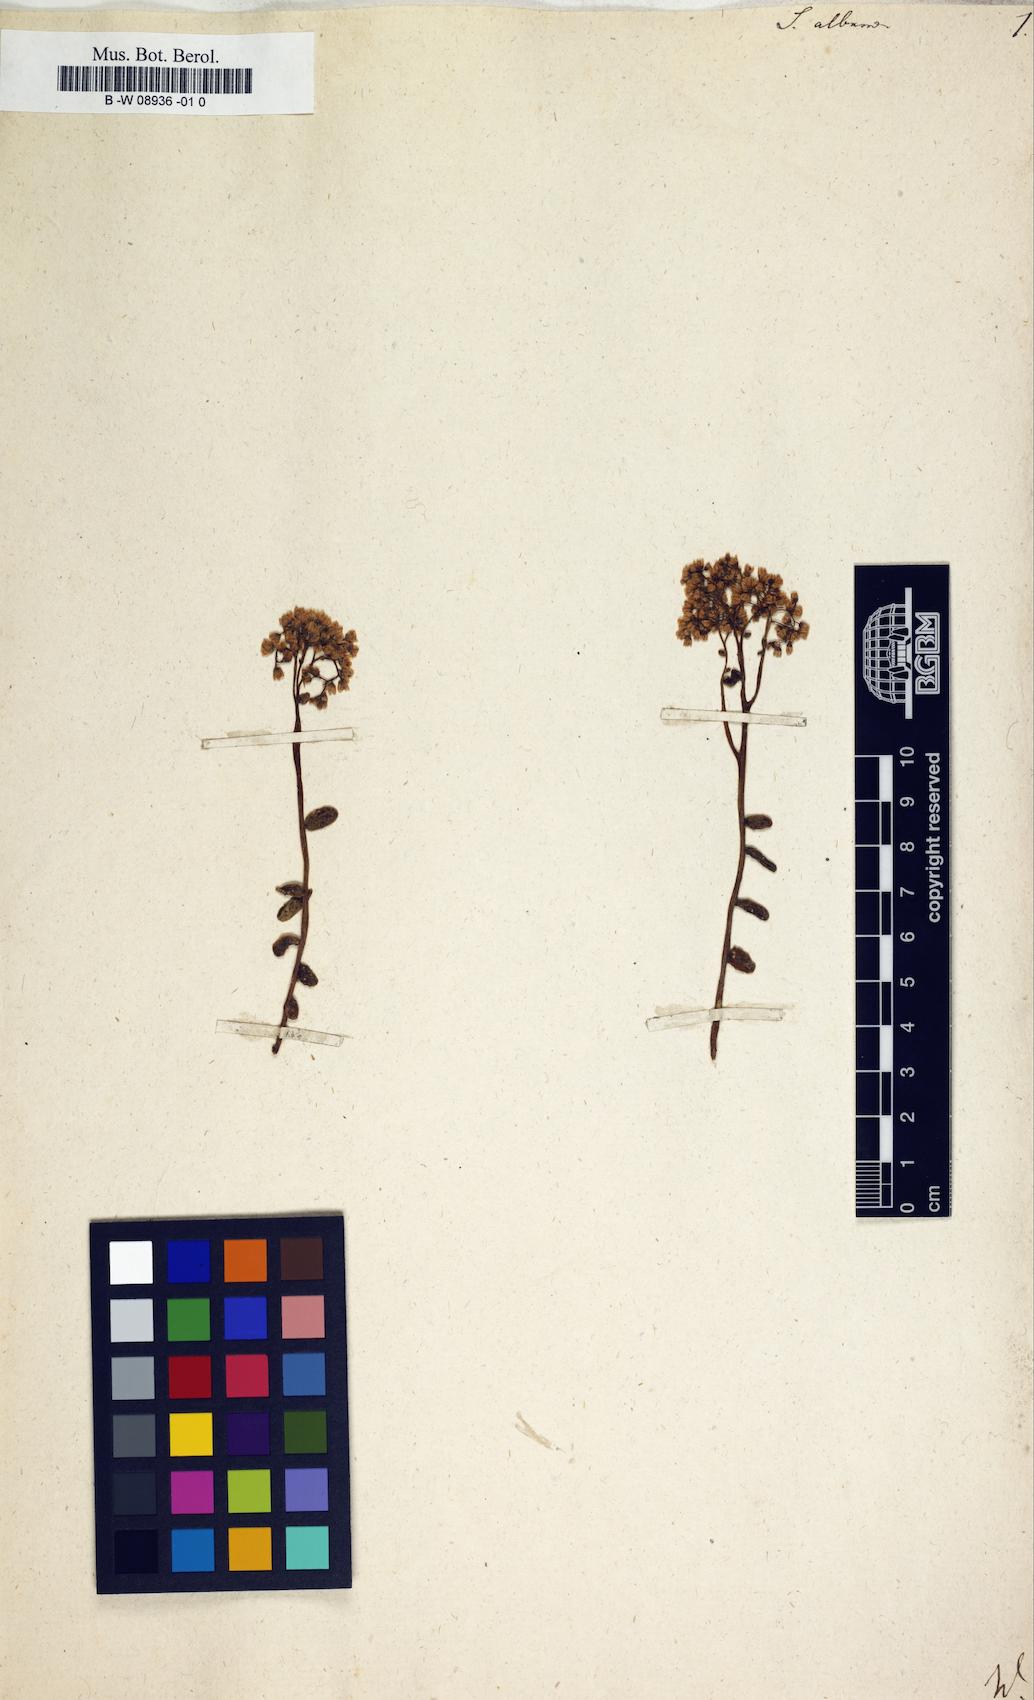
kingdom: Plantae
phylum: Tracheophyta
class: Magnoliopsida
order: Saxifragales
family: Crassulaceae
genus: Sedum
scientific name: Sedum album
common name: White stonecrop
